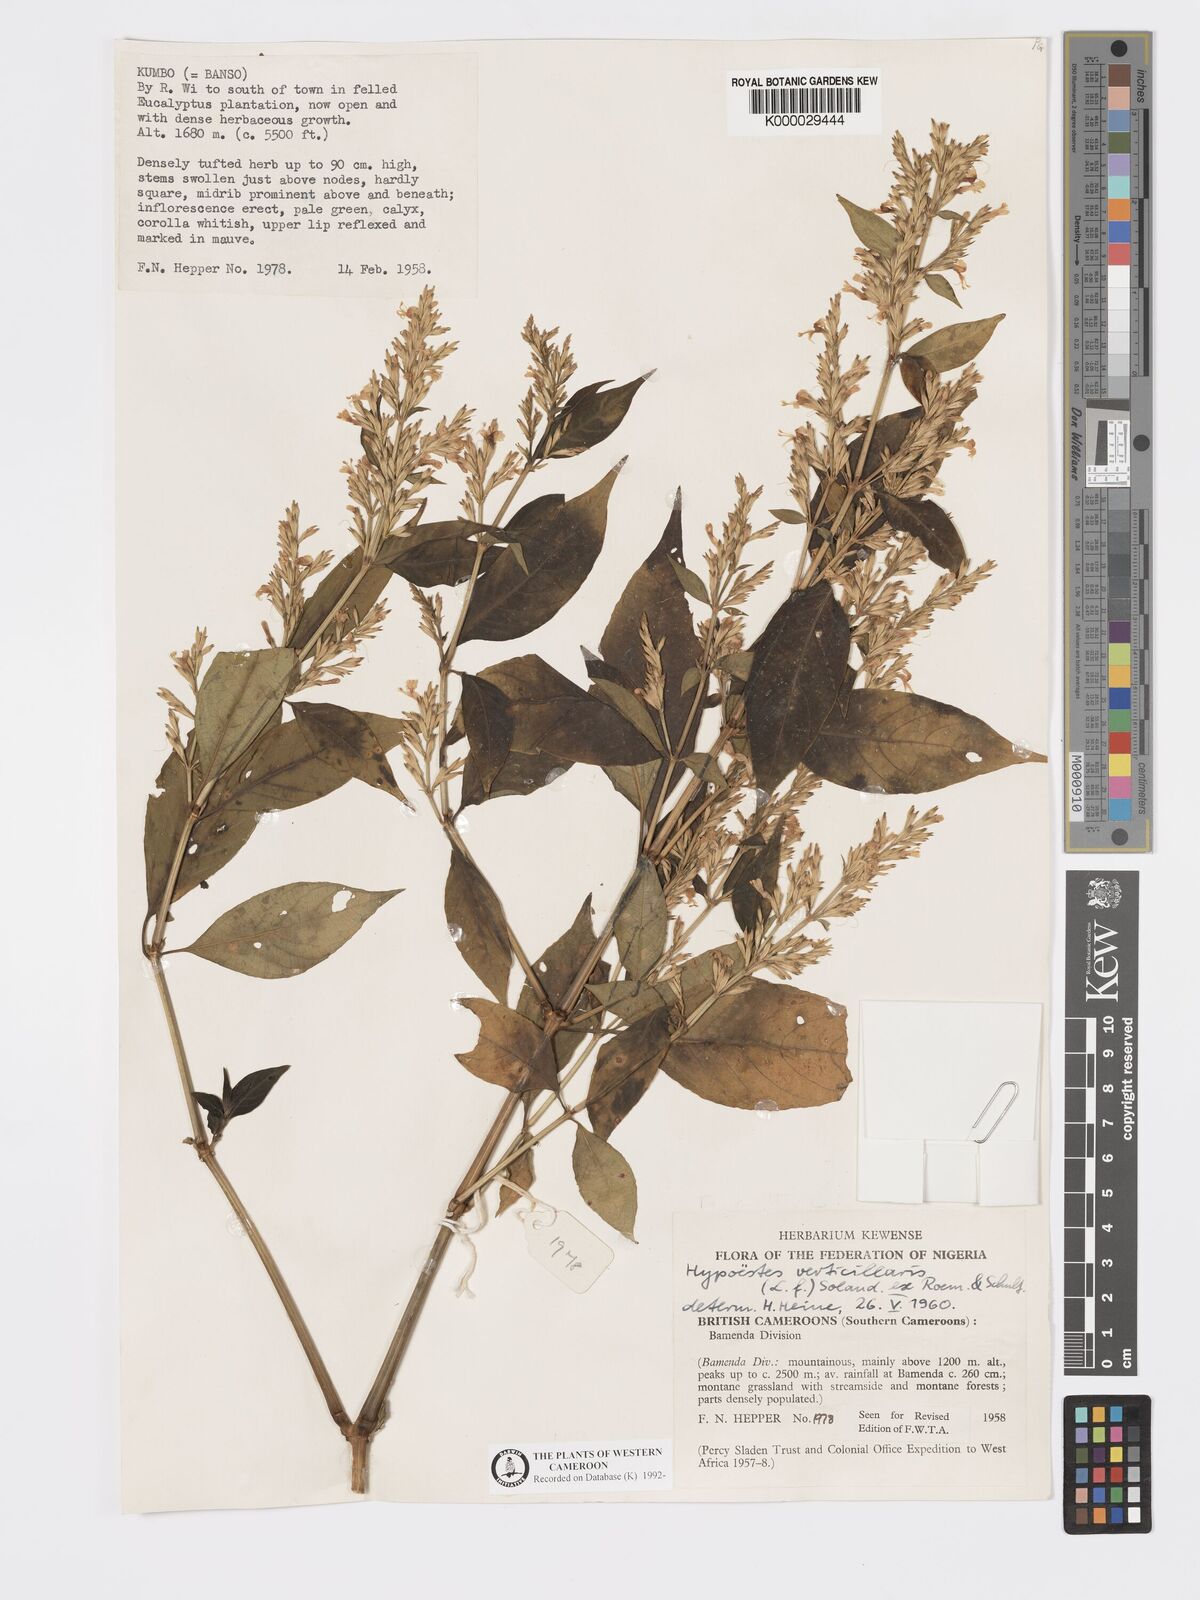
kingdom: Plantae
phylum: Tracheophyta
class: Magnoliopsida
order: Lamiales
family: Acanthaceae
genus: Hypoestes
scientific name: Hypoestes
